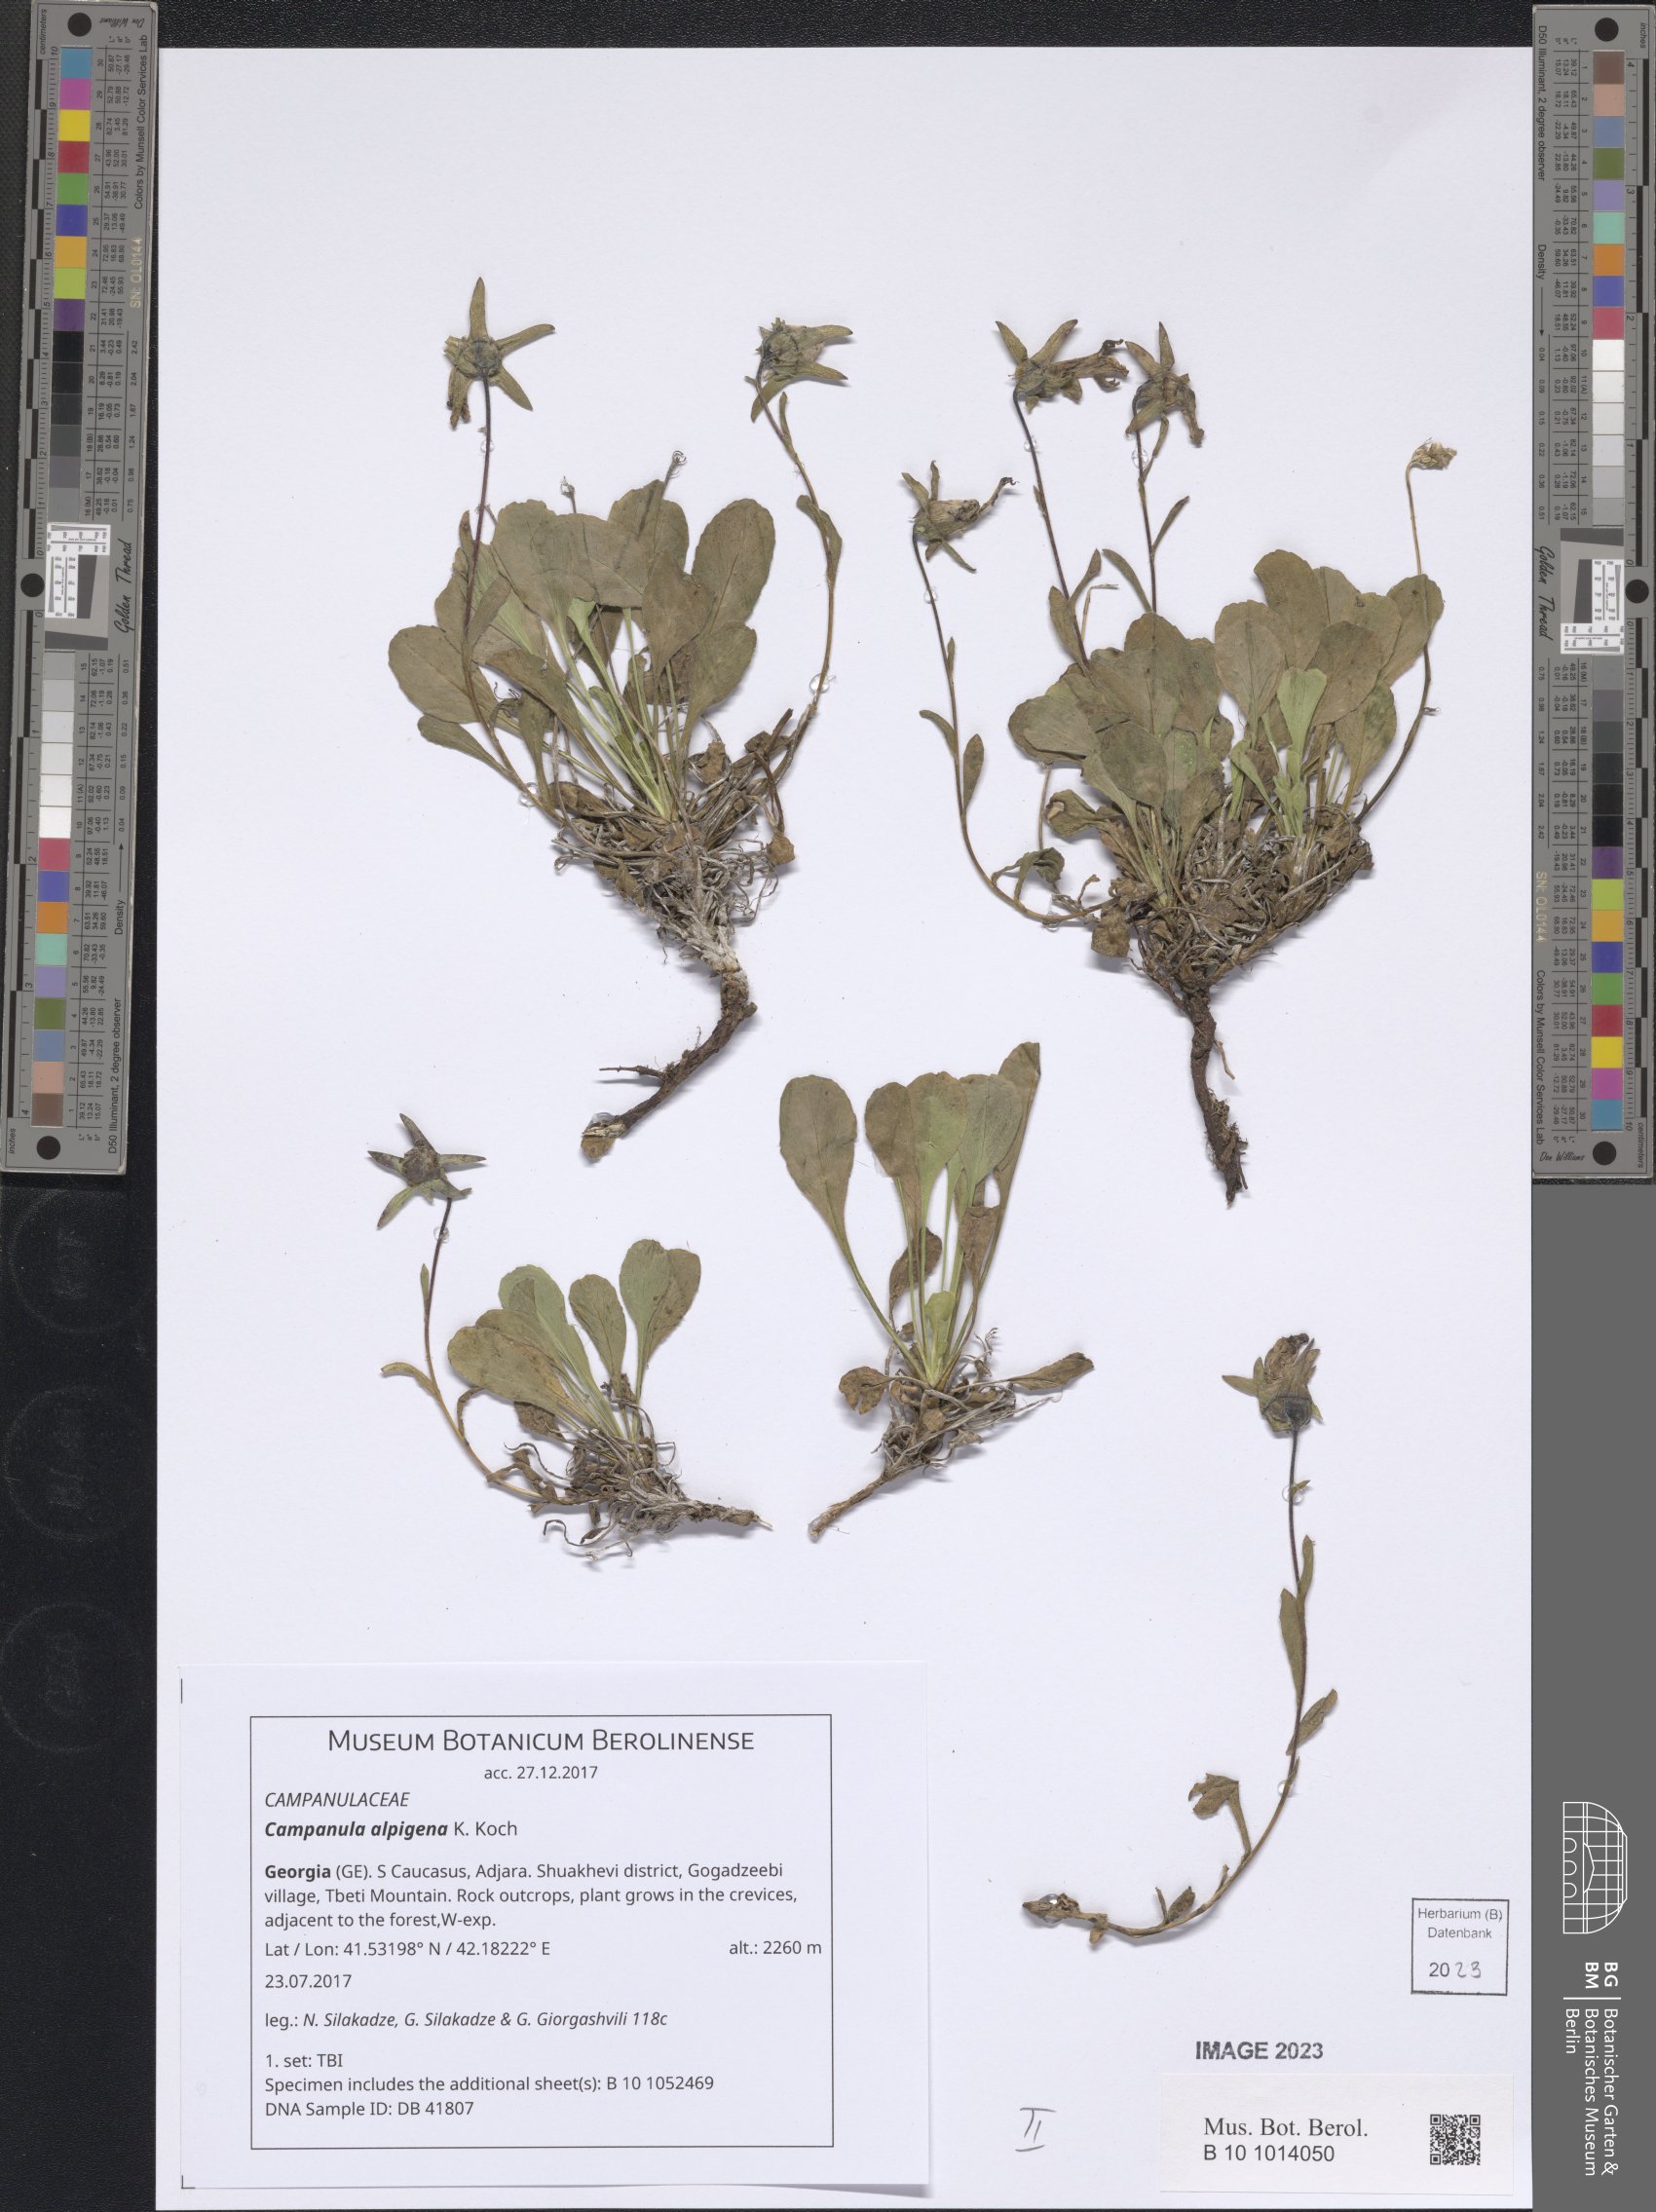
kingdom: Plantae
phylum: Tracheophyta
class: Magnoliopsida
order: Asterales
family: Campanulaceae
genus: Campanula
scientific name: Campanula saxifraga
